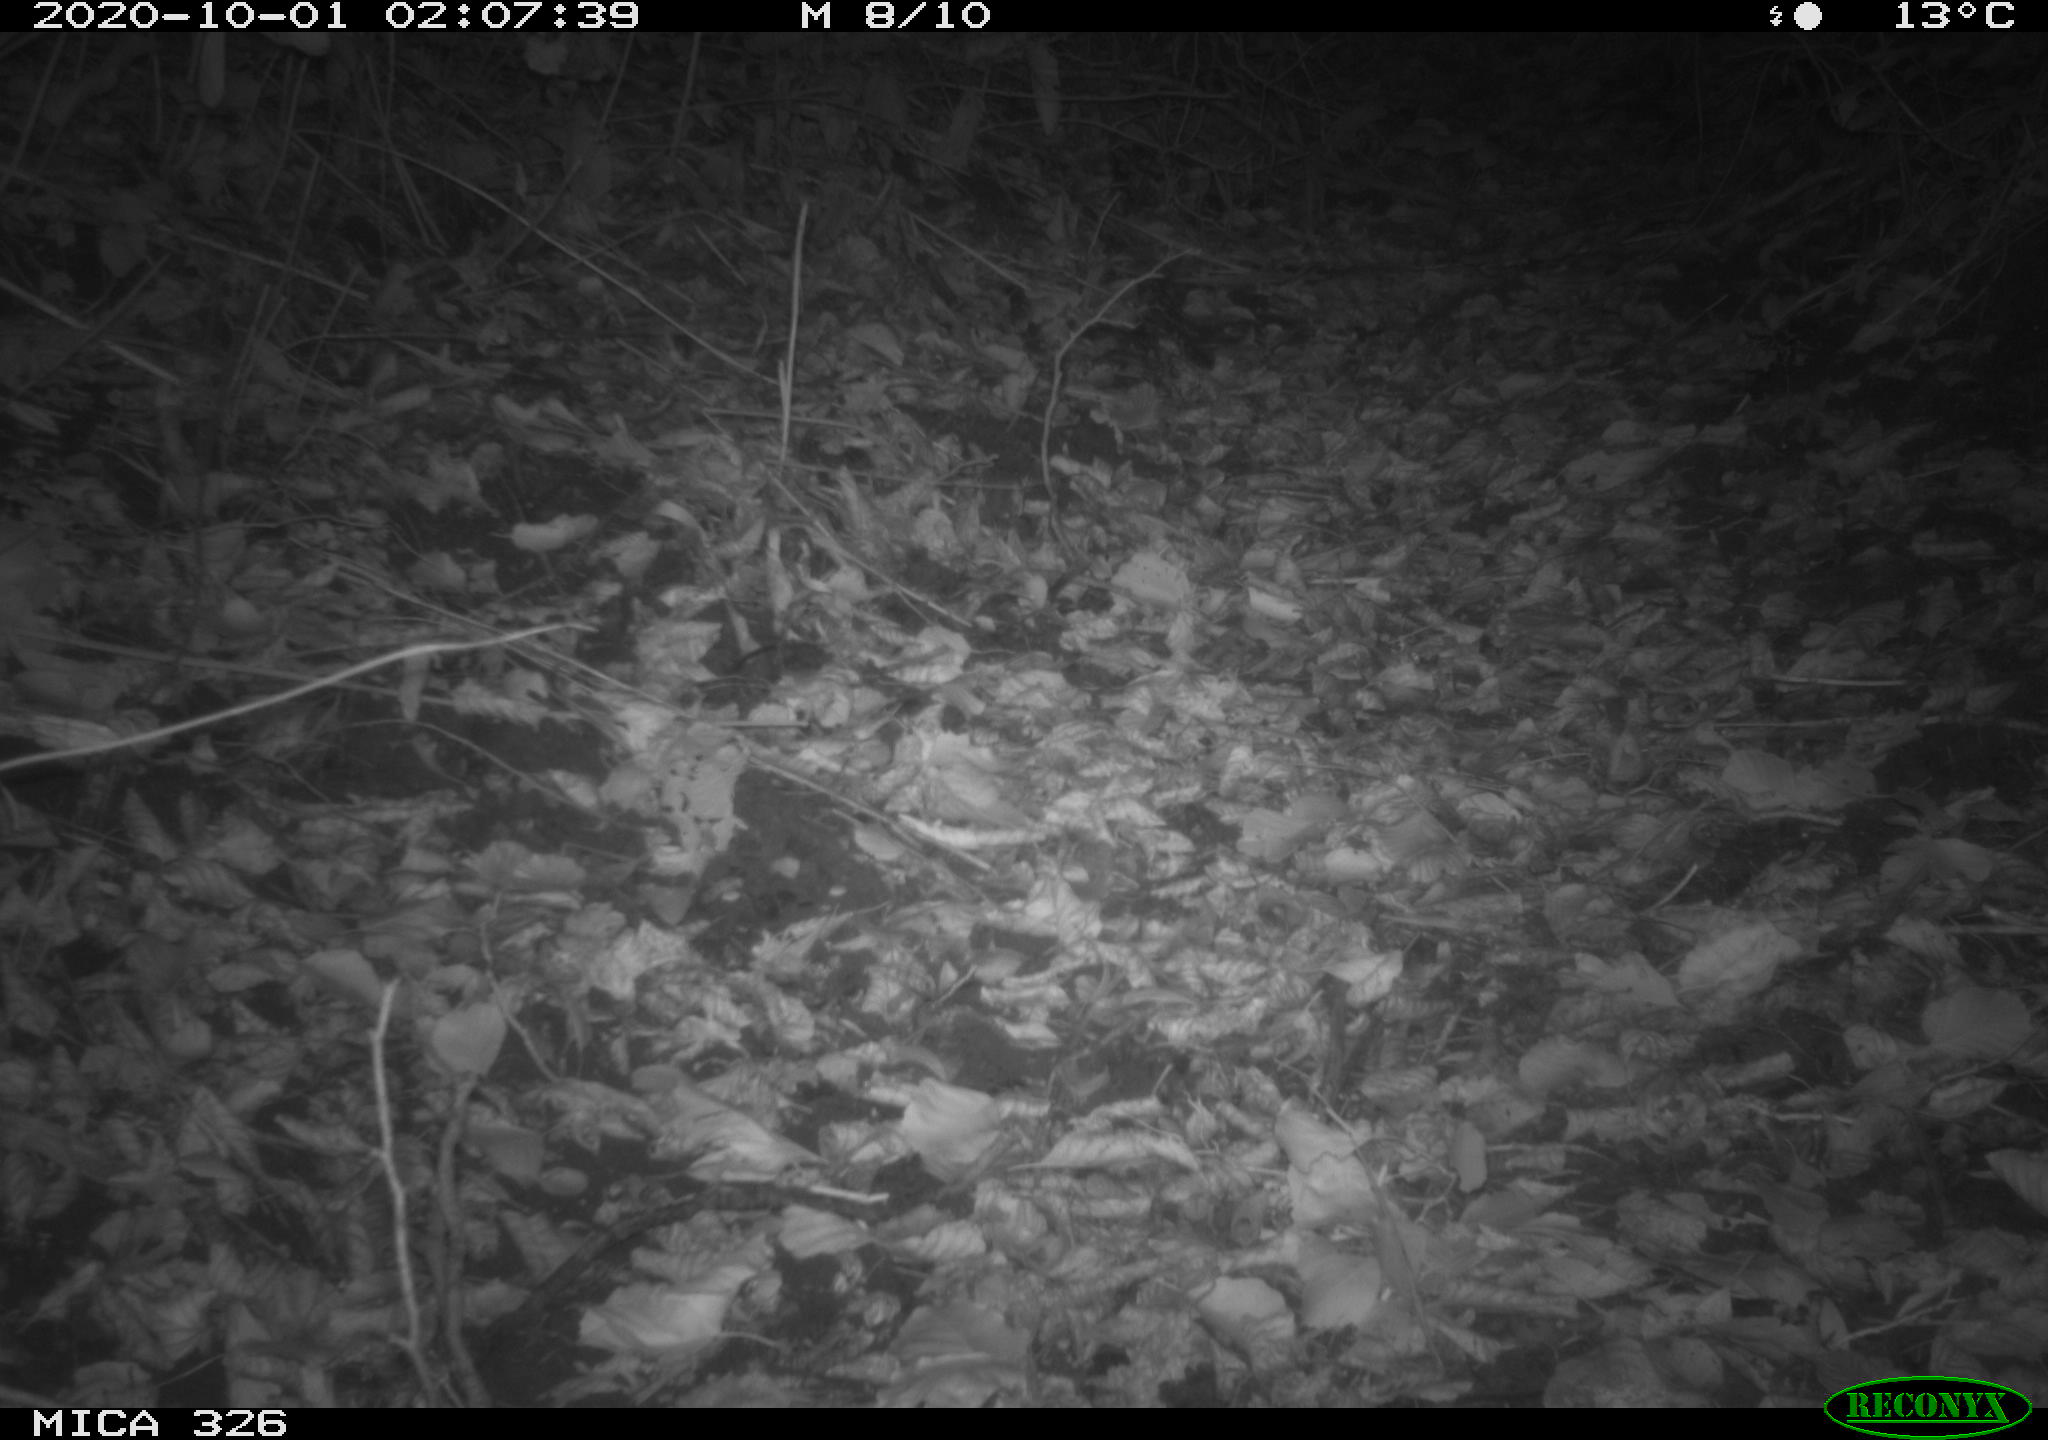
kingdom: Animalia
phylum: Chordata
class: Mammalia
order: Carnivora
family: Mustelidae
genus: Martes
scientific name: Martes foina
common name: Beech marten
